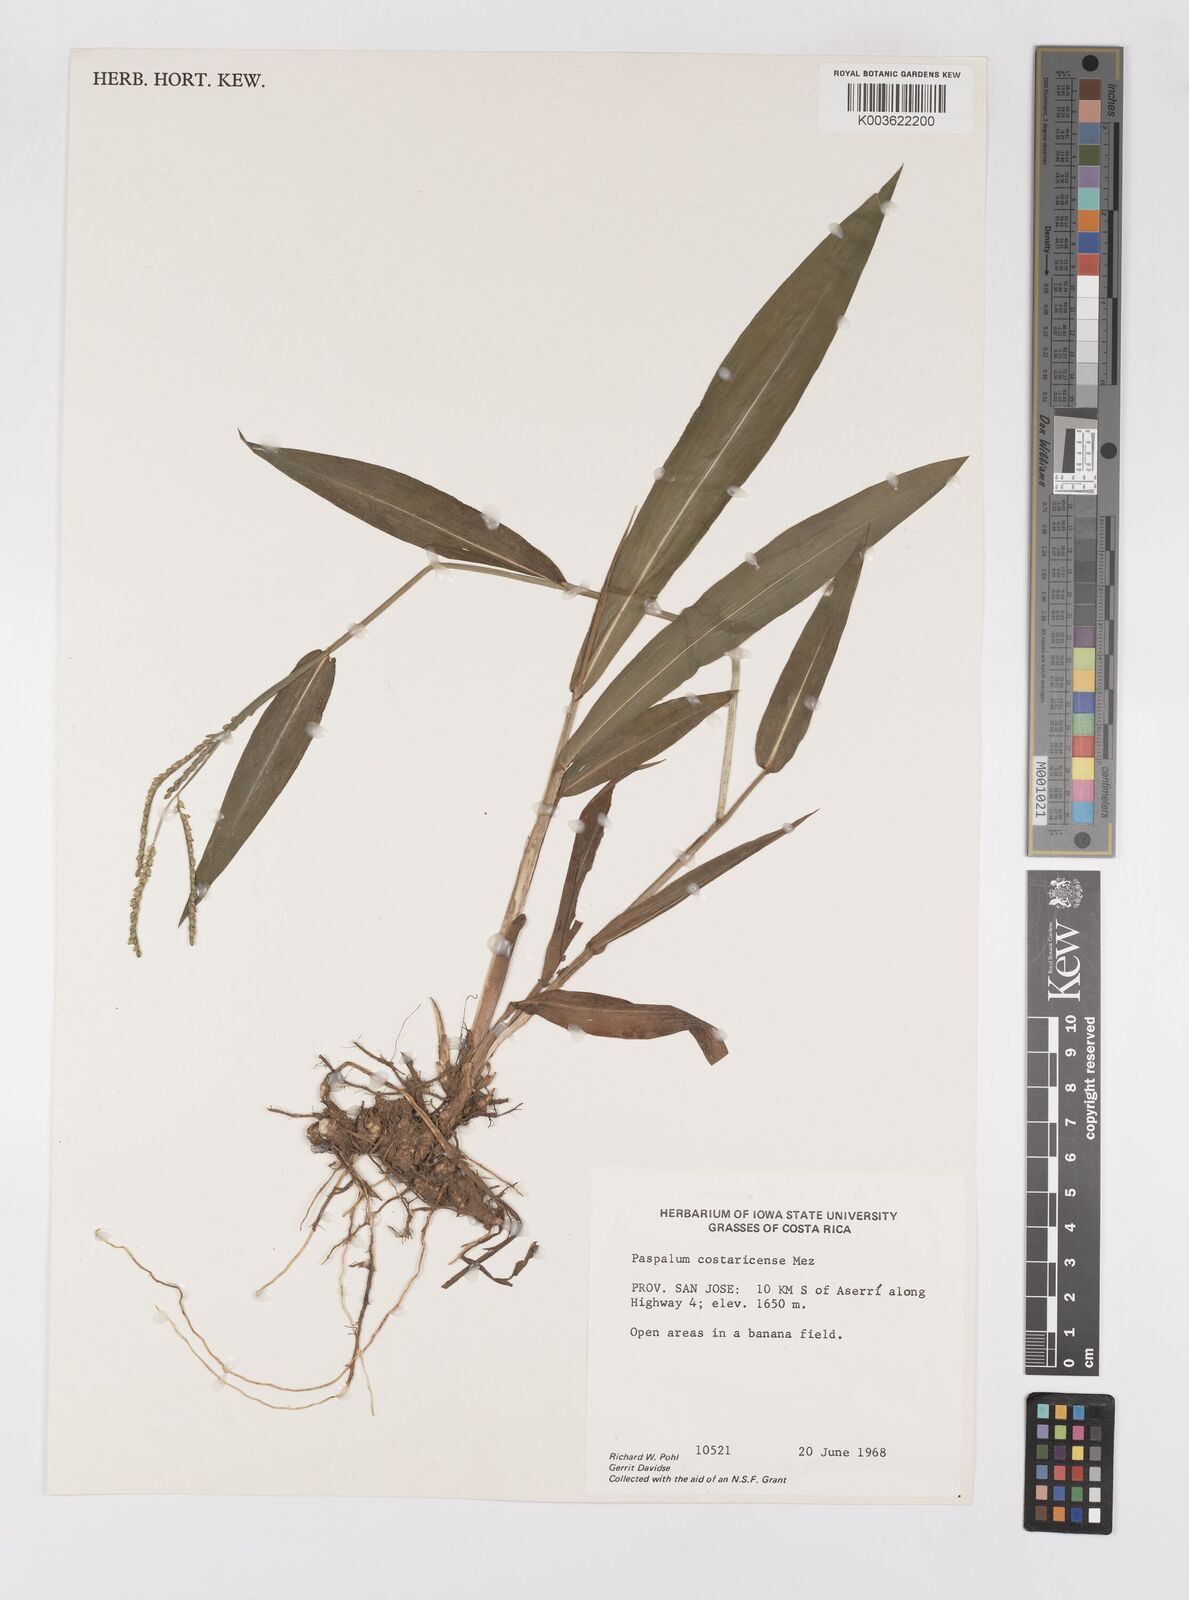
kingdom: Plantae
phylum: Tracheophyta
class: Liliopsida
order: Poales
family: Poaceae
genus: Paspalum
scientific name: Paspalum costaricense
